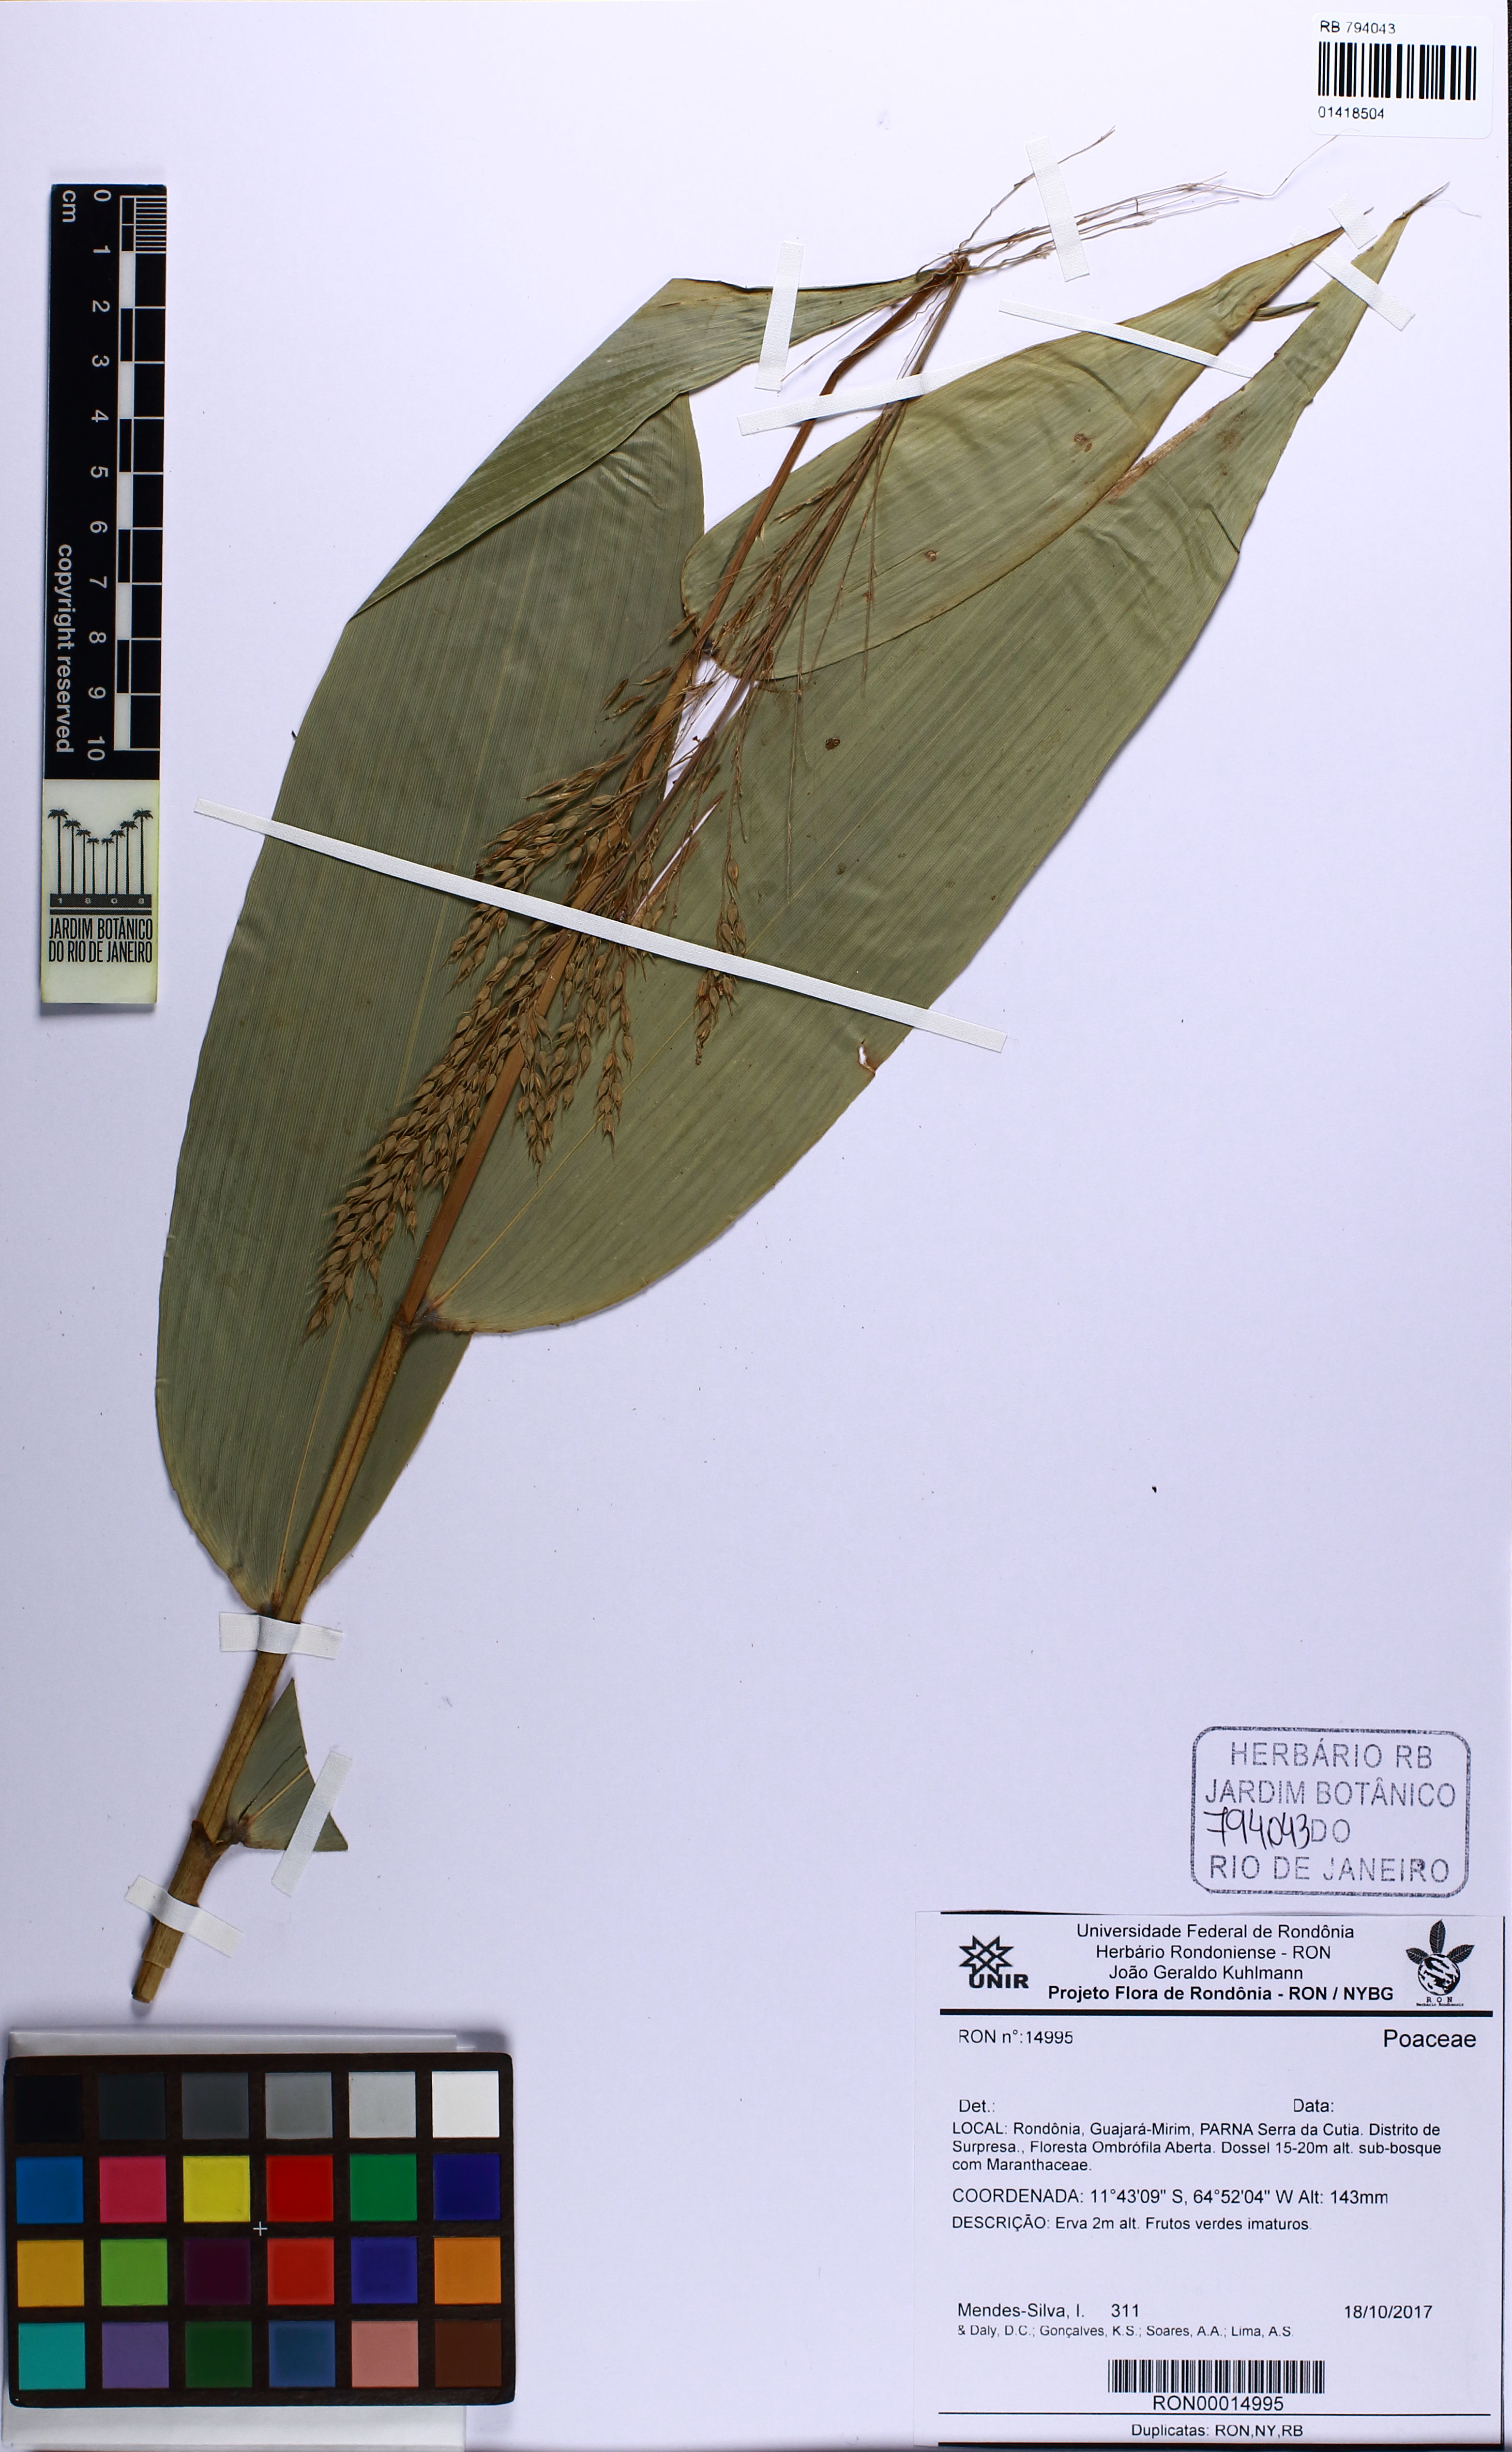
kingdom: Plantae
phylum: Tracheophyta
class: Liliopsida
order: Poales
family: Poaceae
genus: Taquara
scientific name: Taquara micrantha
